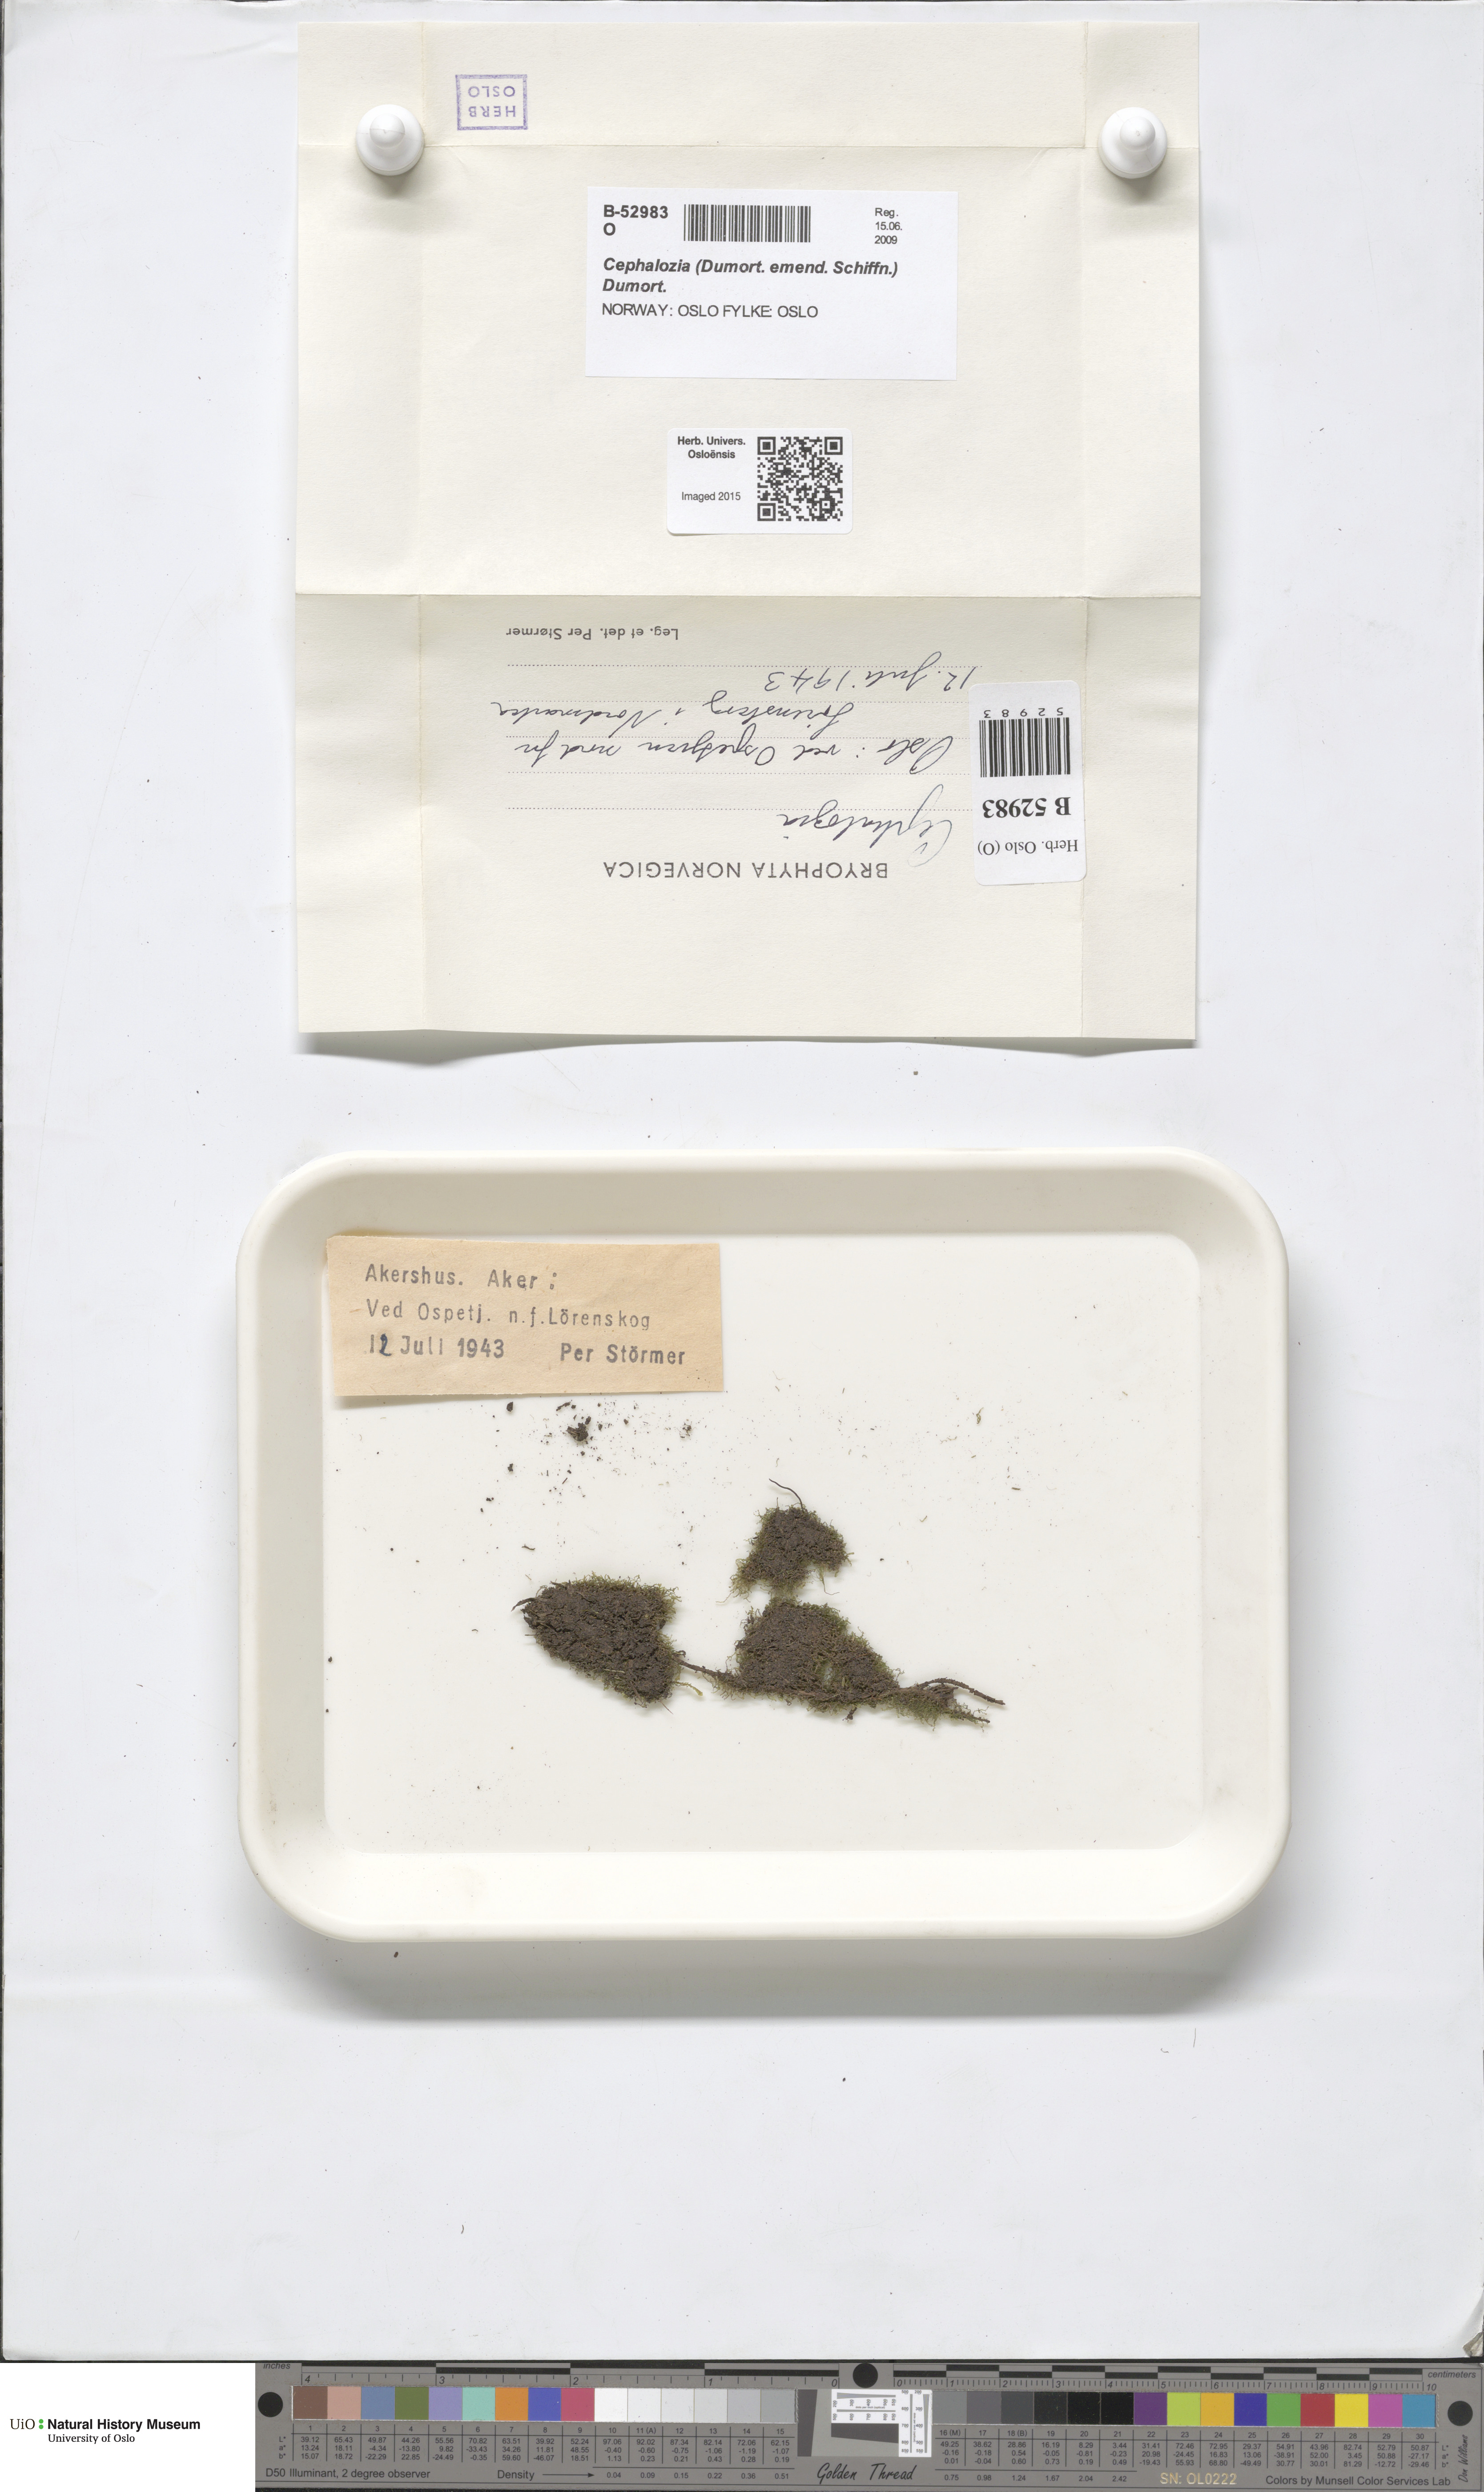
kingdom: Plantae
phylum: Marchantiophyta
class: Jungermanniopsida
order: Jungermanniales
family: Cephaloziaceae
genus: Cephalozia
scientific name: Cephalozia
